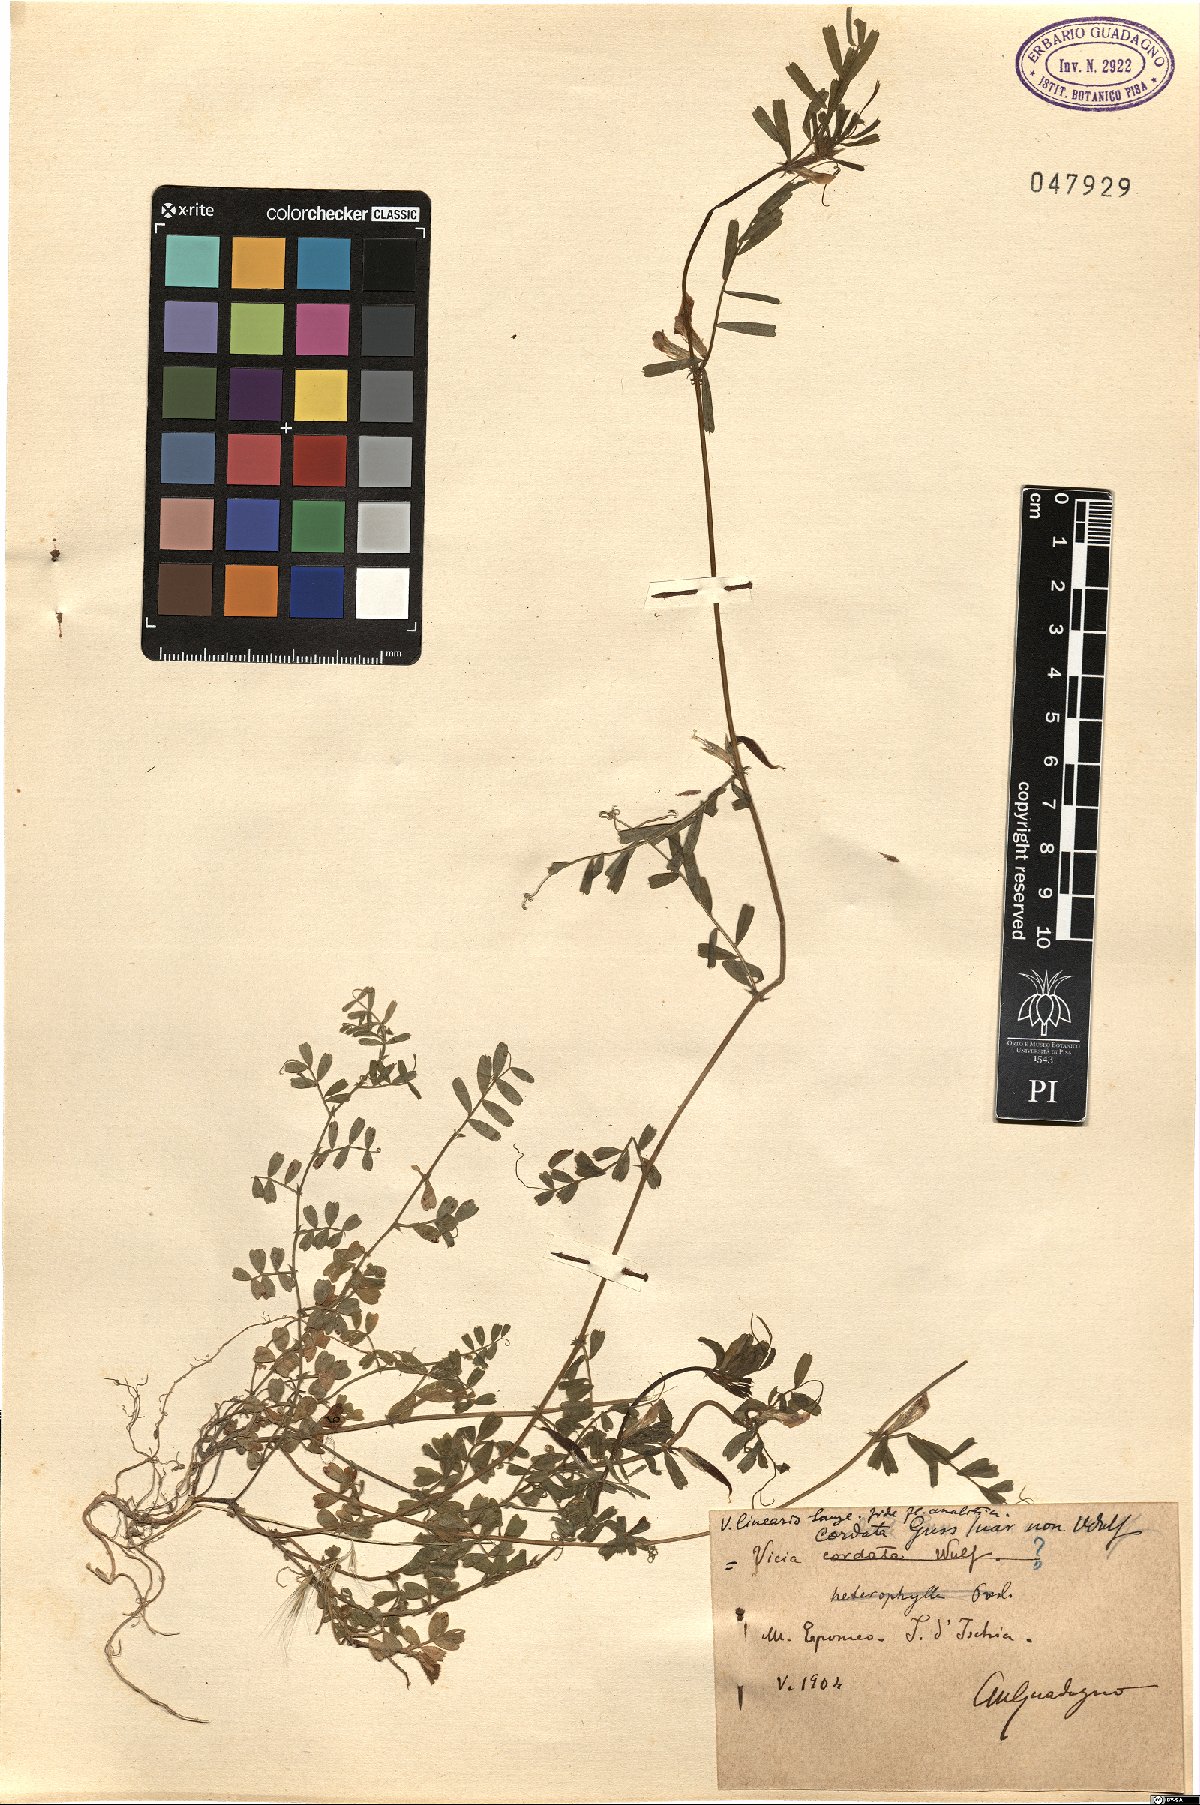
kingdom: Plantae
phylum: Tracheophyta
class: Magnoliopsida
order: Fabales
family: Fabaceae
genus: Vicia
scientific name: Vicia sativa
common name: Garden vetch
